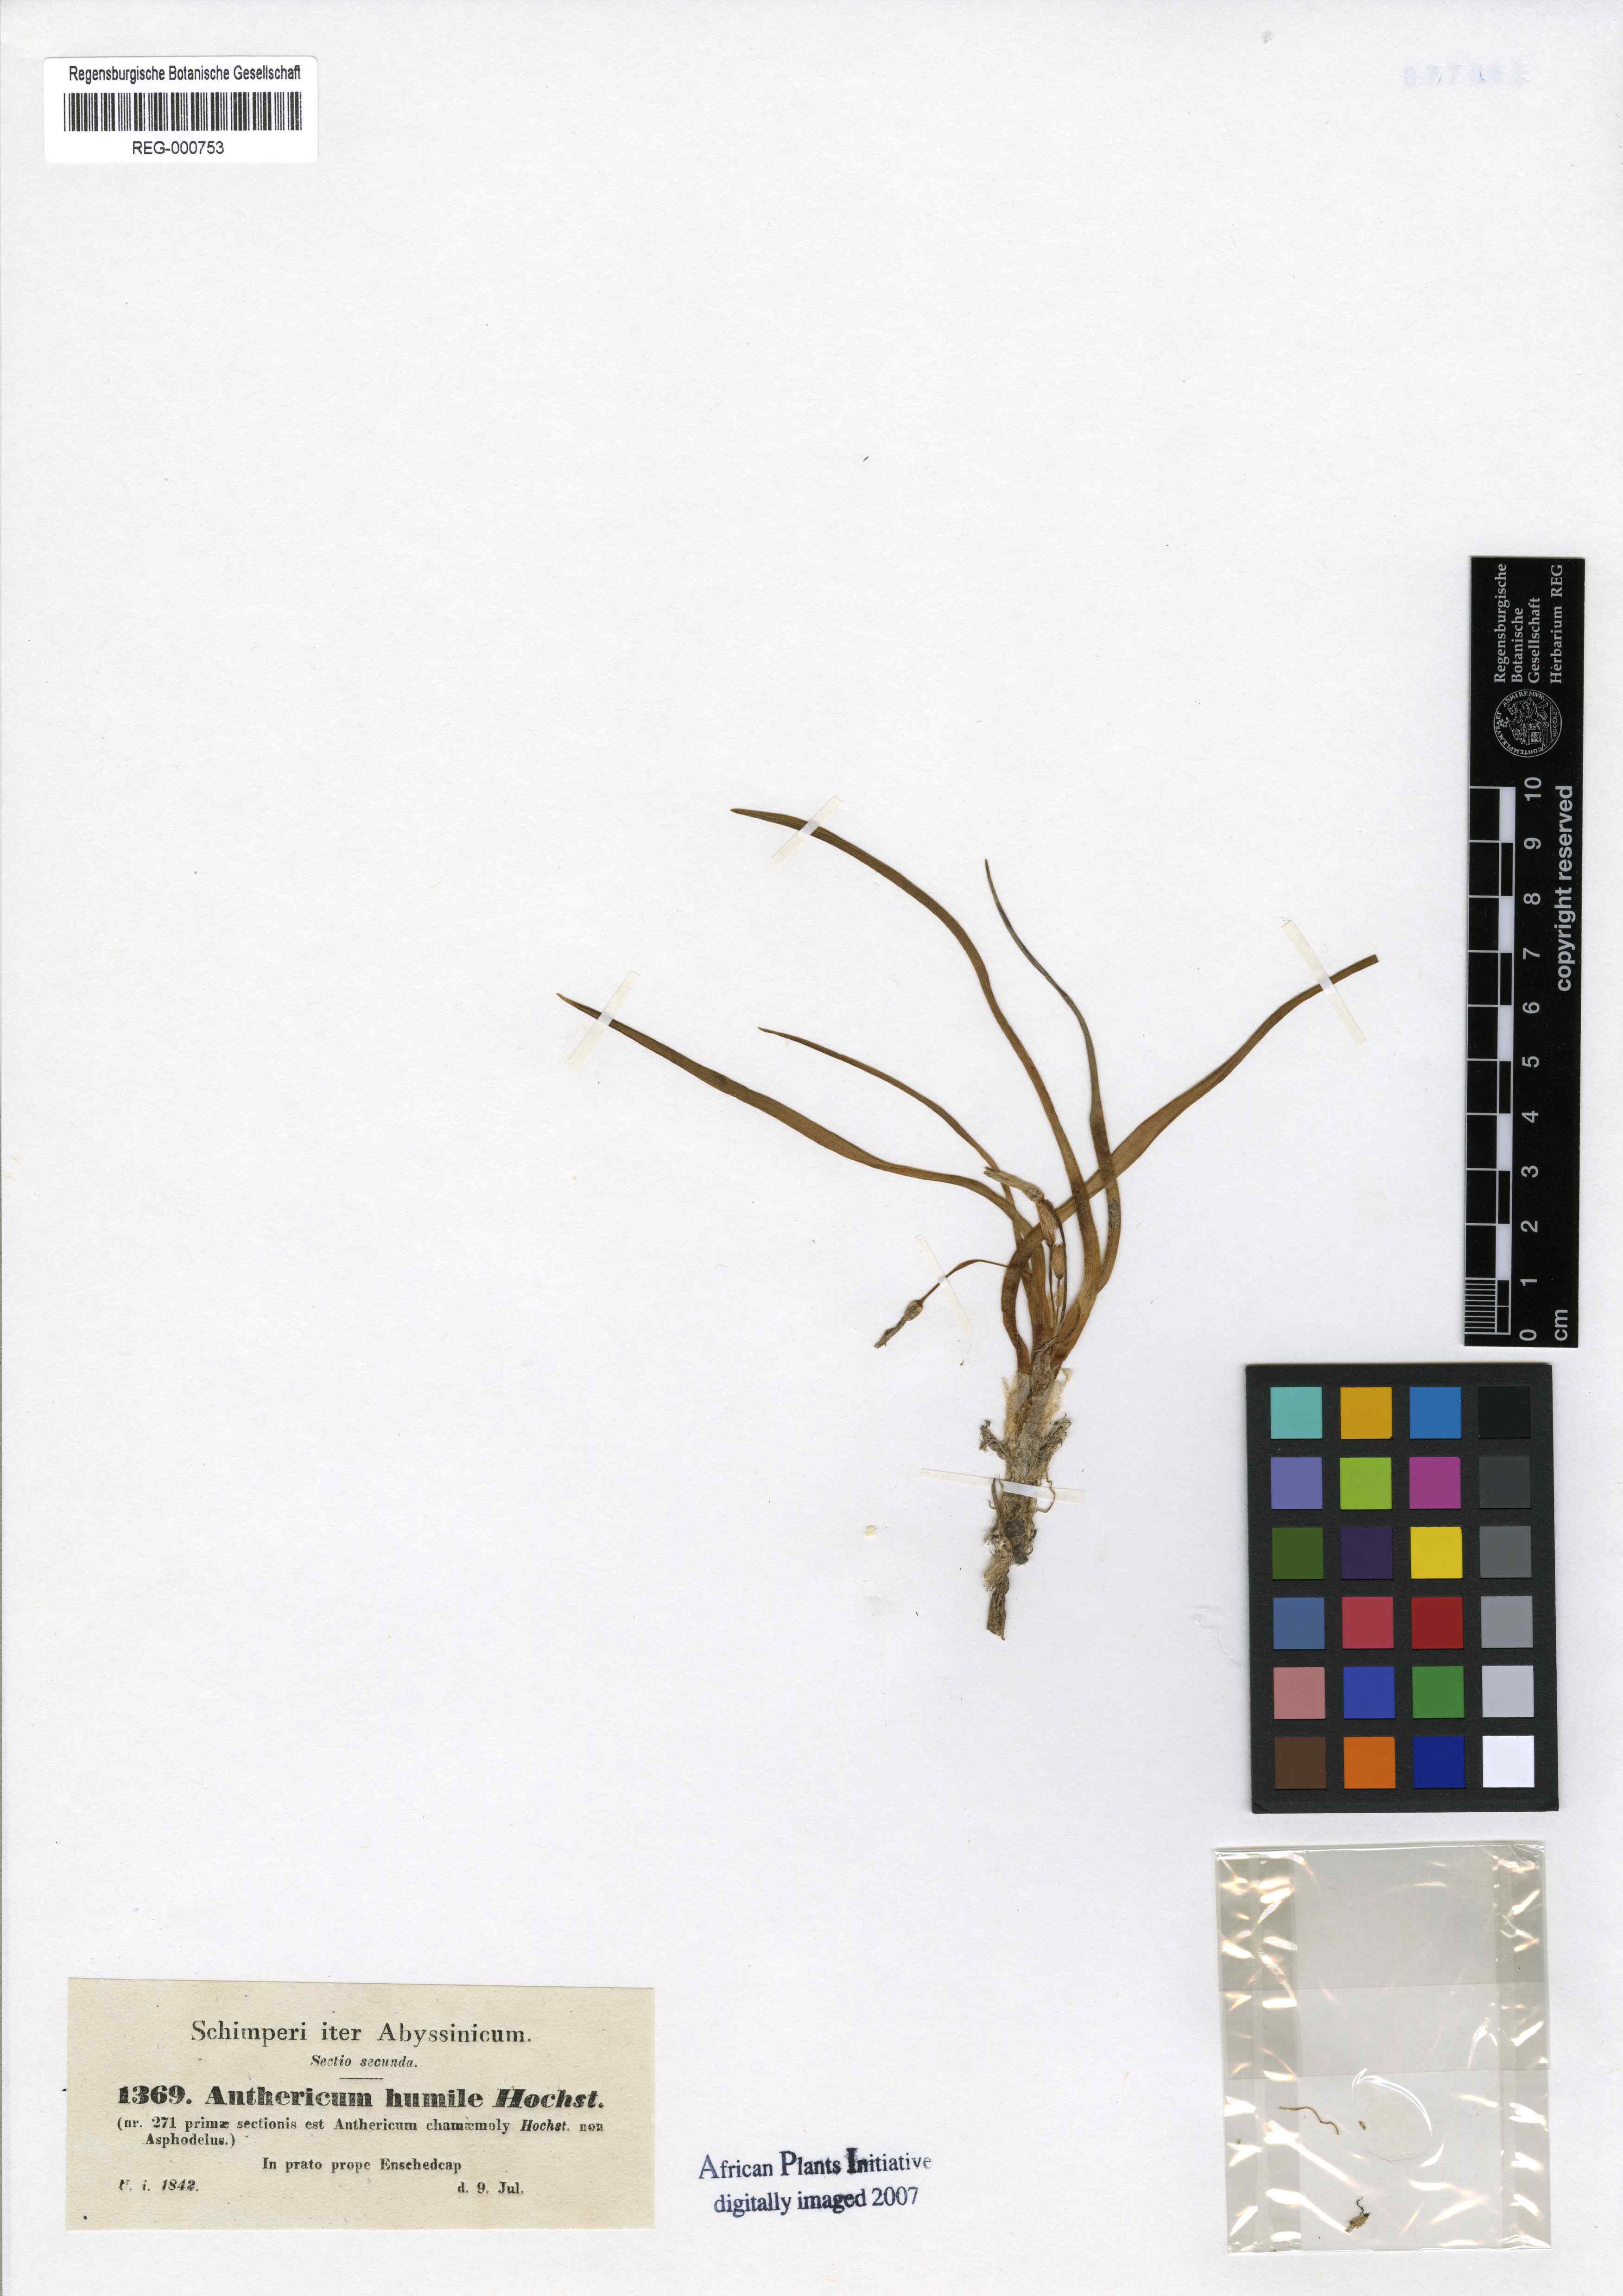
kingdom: Plantae
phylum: Tracheophyta
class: Liliopsida
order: Asparagales
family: Asparagaceae
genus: Anthericum
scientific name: Anthericum angustifolium
